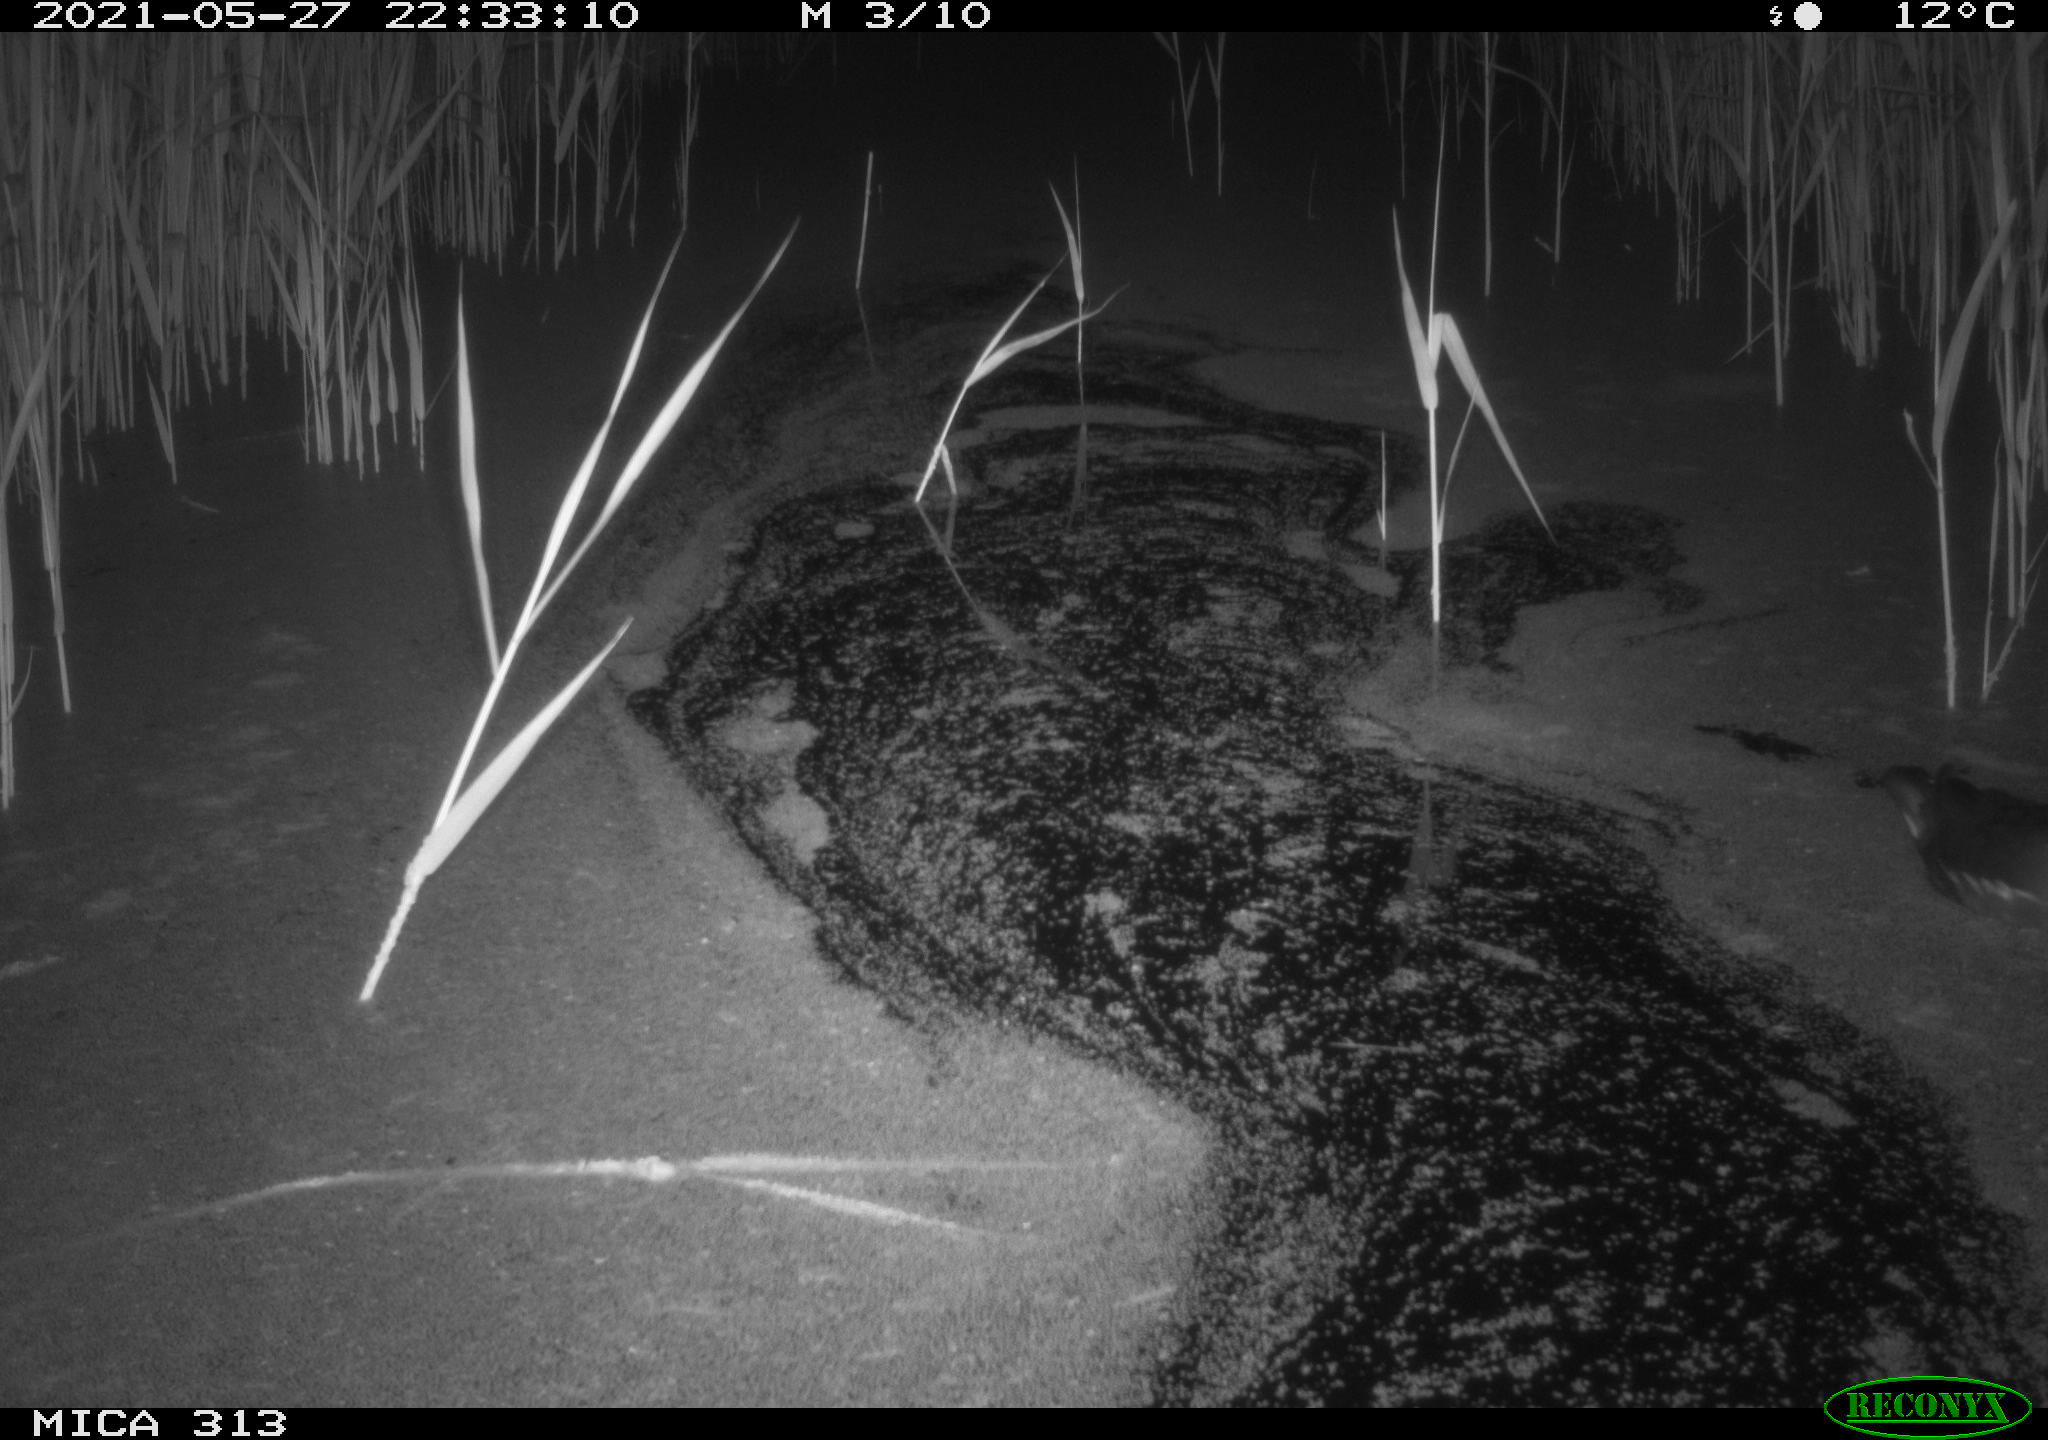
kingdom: Animalia
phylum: Chordata
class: Aves
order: Gruiformes
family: Rallidae
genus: Gallinula
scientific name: Gallinula chloropus
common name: Common moorhen
